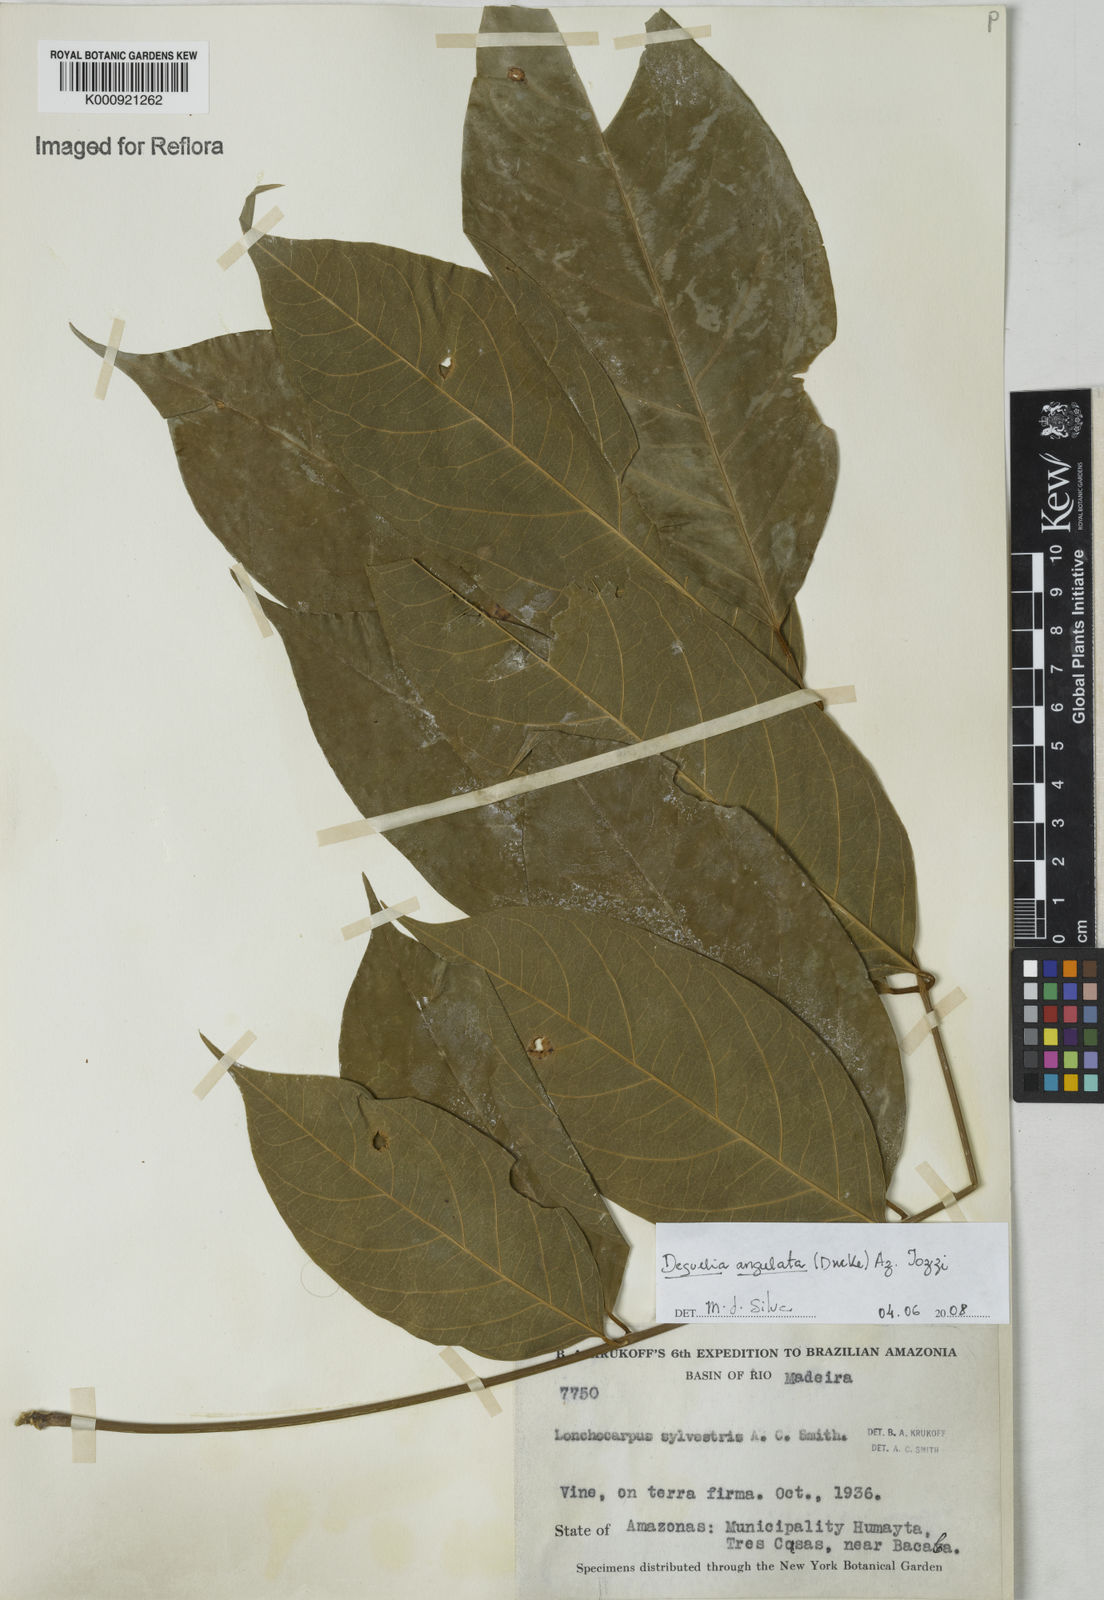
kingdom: Plantae
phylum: Tracheophyta
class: Magnoliopsida
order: Fabales
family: Fabaceae
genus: Deguelia
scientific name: Deguelia angulata
